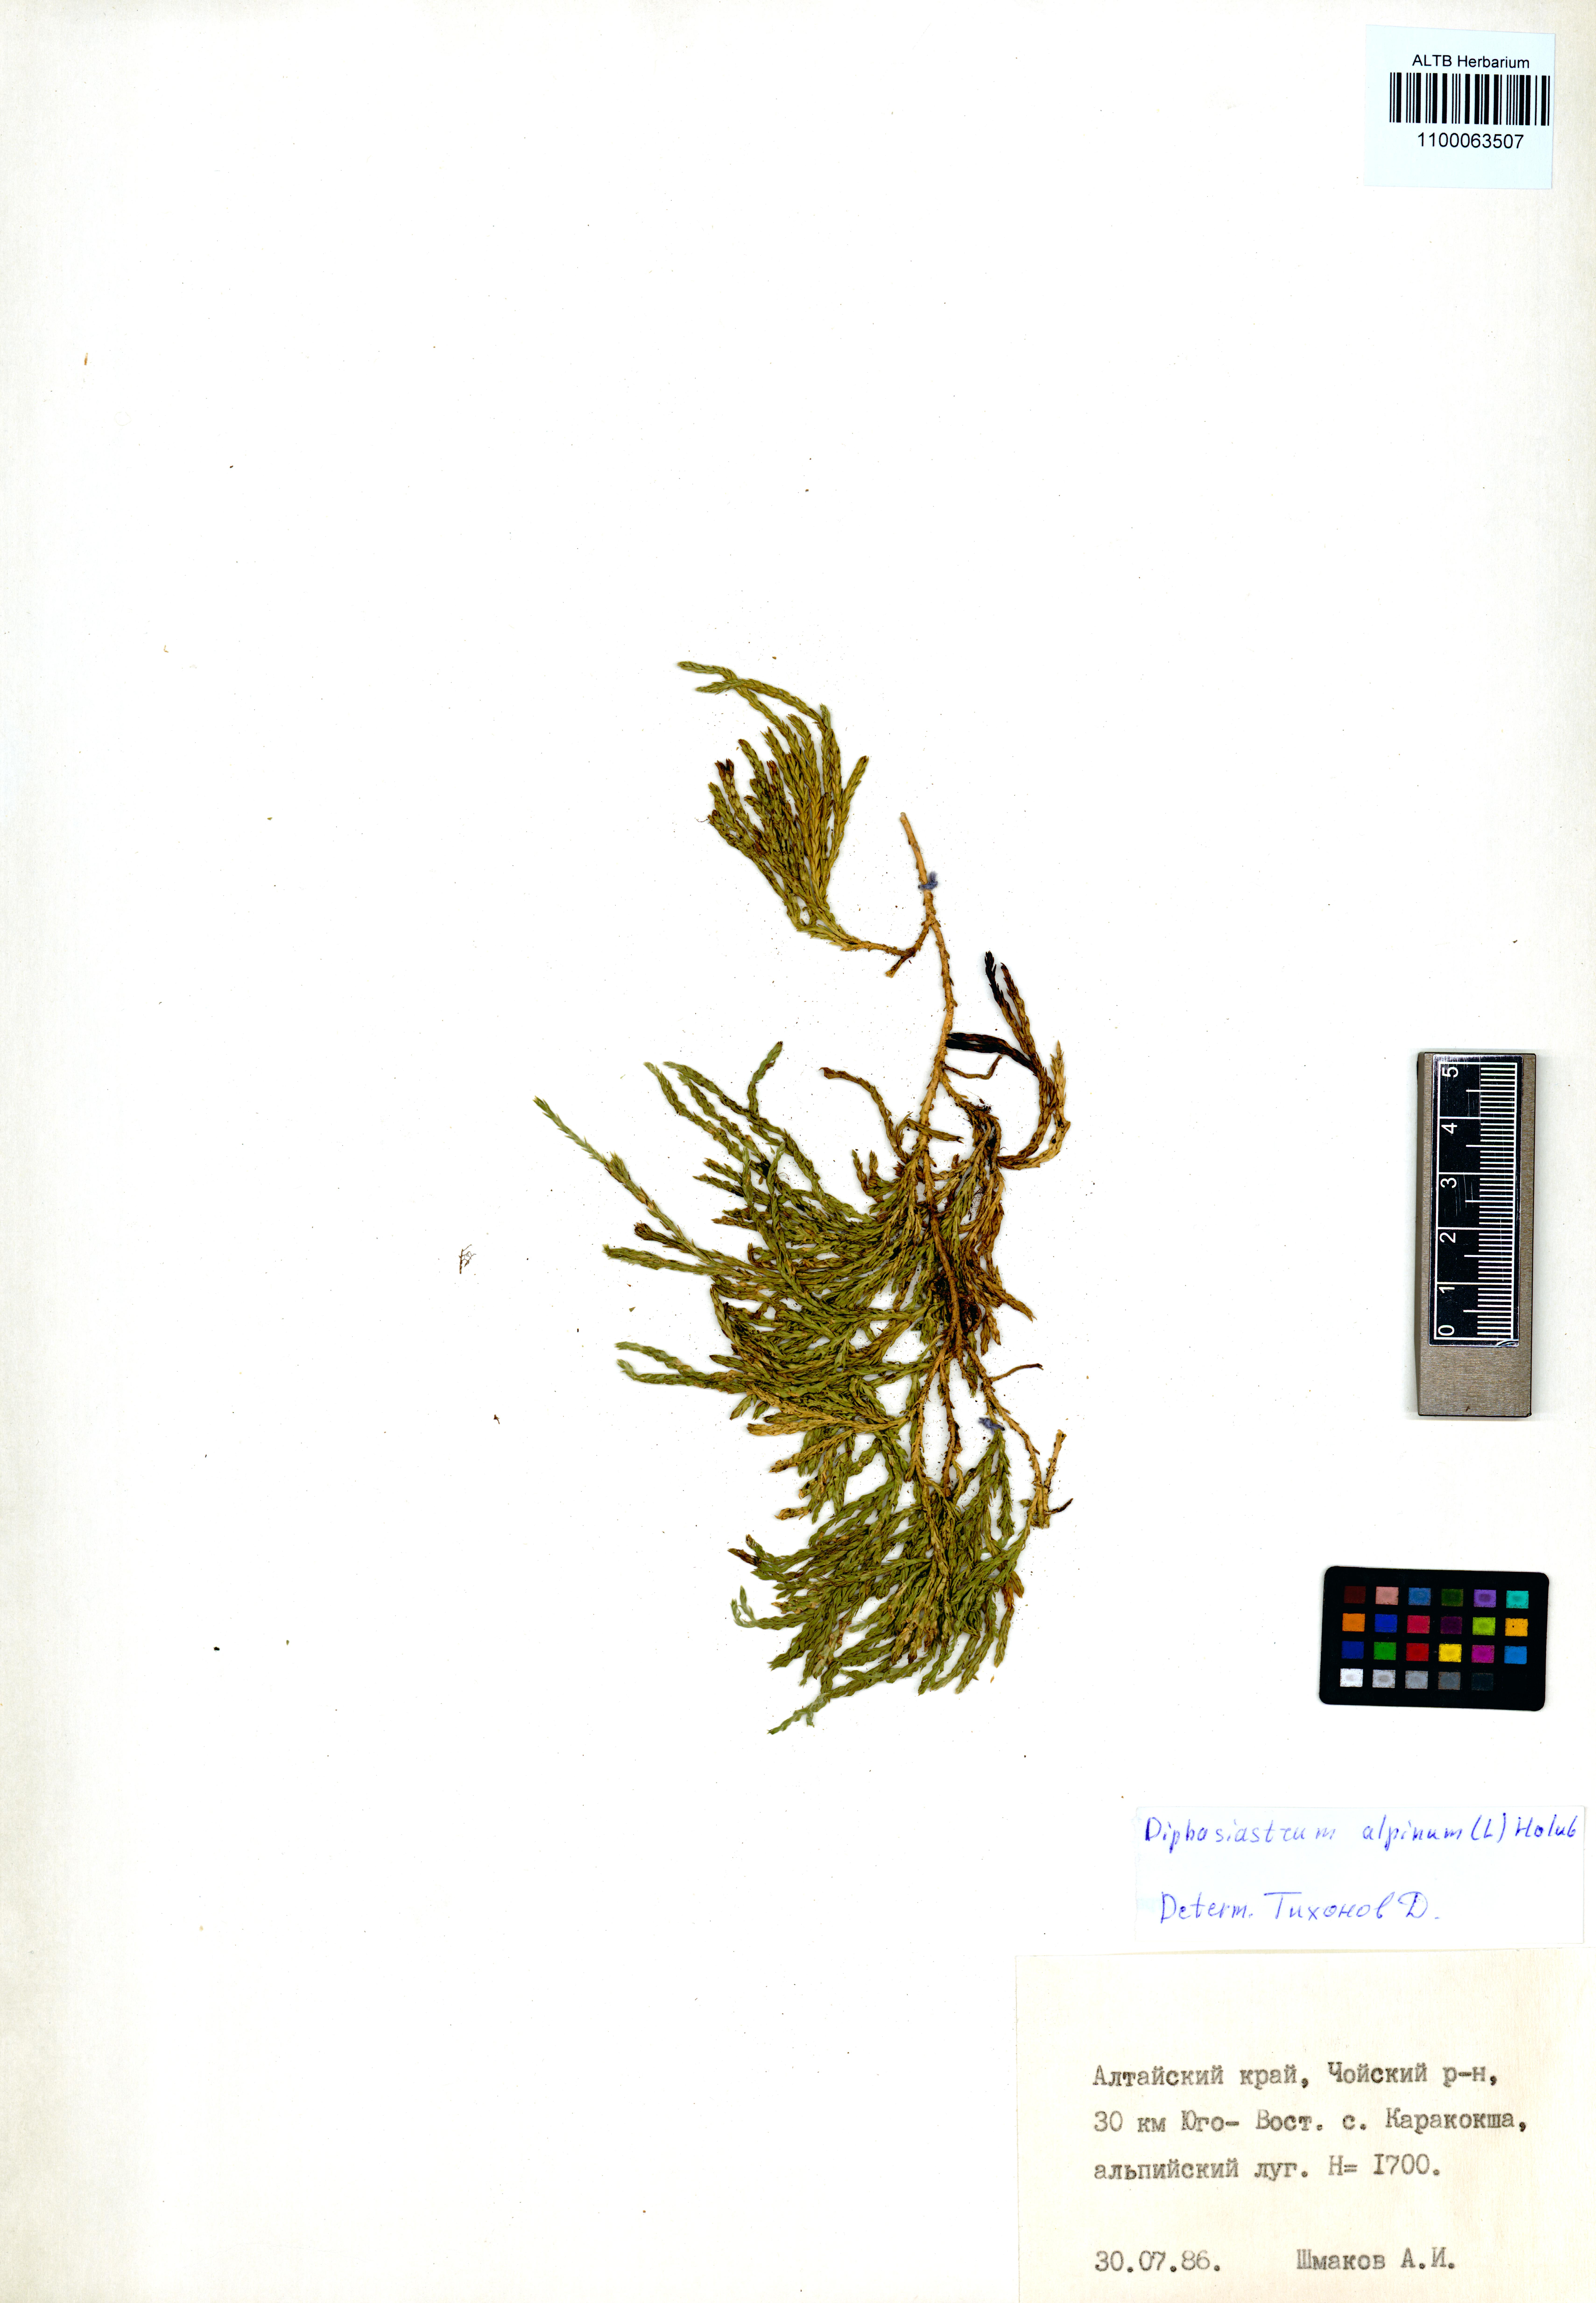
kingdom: Plantae
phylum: Tracheophyta
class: Lycopodiopsida
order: Lycopodiales
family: Lycopodiaceae
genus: Diphasiastrum
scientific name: Diphasiastrum alpinum
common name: Alpine clubmoss
